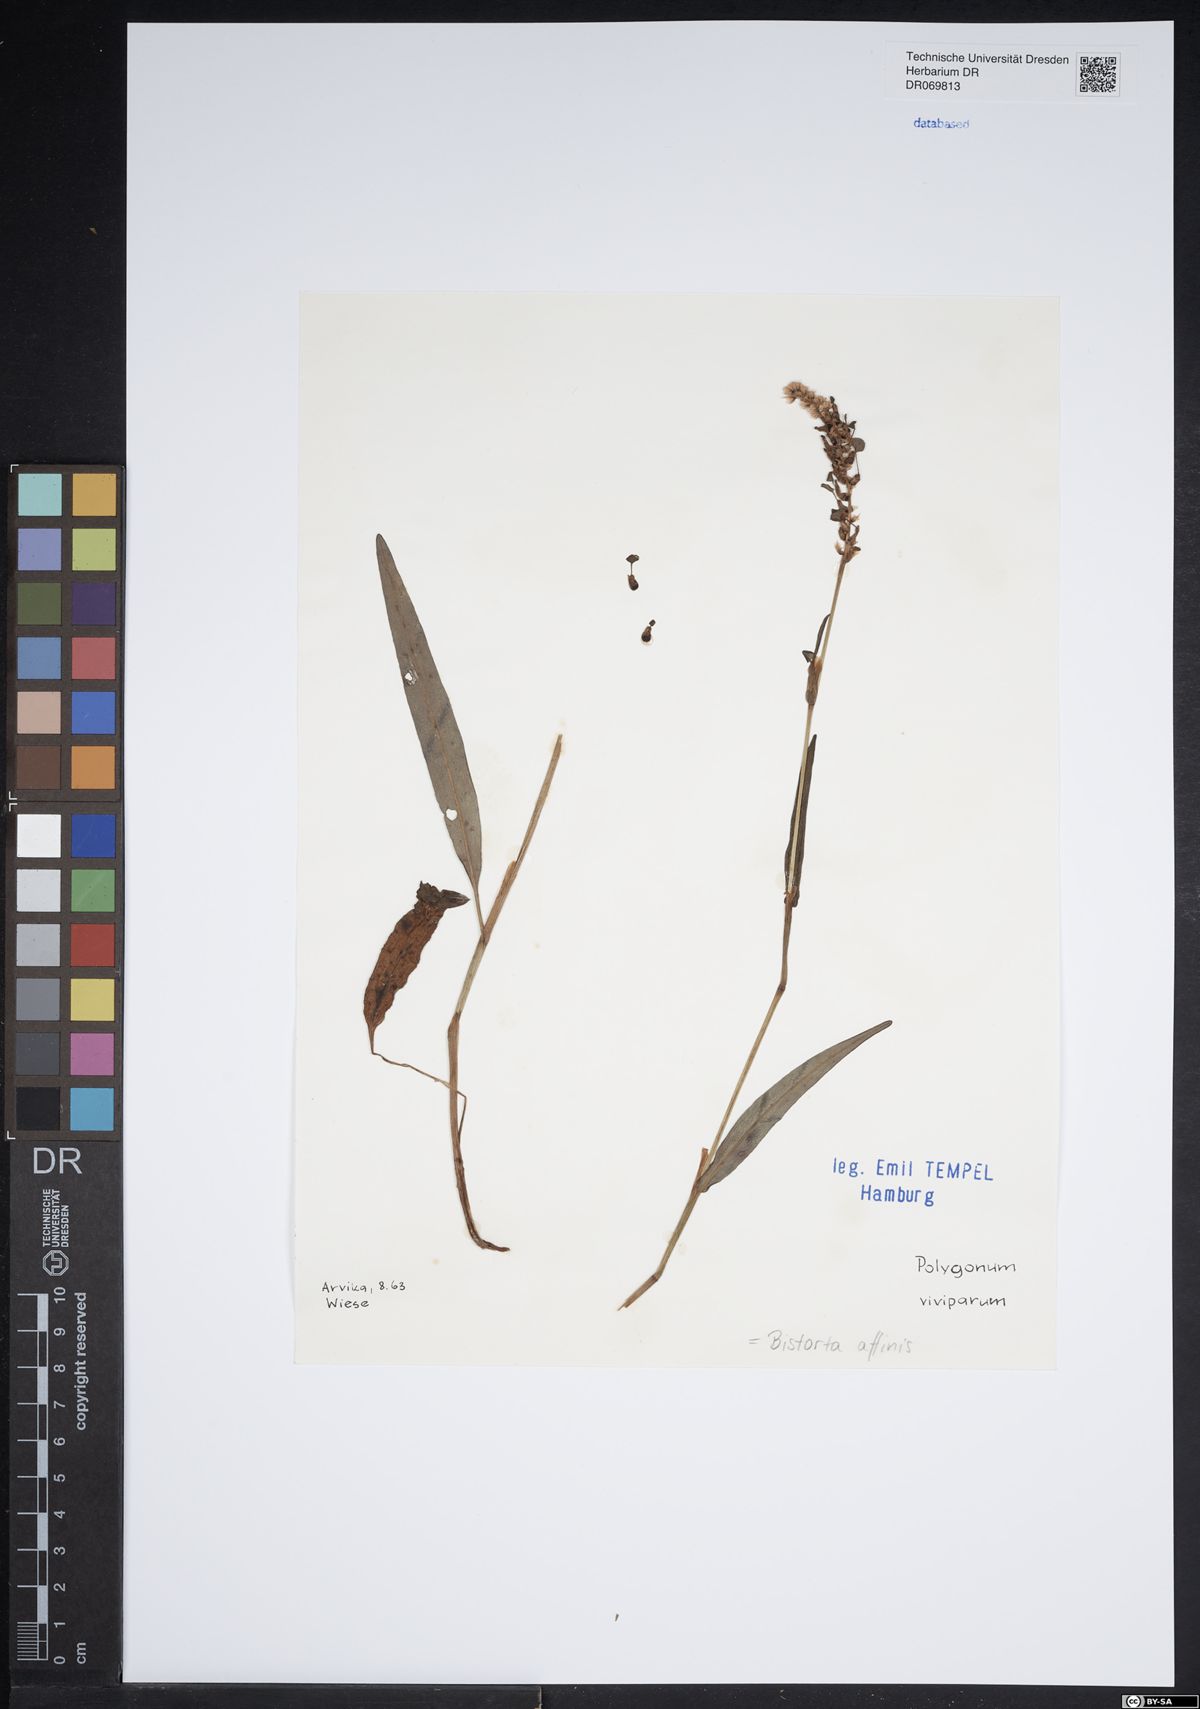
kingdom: Plantae
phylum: Tracheophyta
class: Magnoliopsida
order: Caryophyllales
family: Polygonaceae
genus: Bistorta
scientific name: Bistorta affinis
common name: Himalayan fleeceflower
